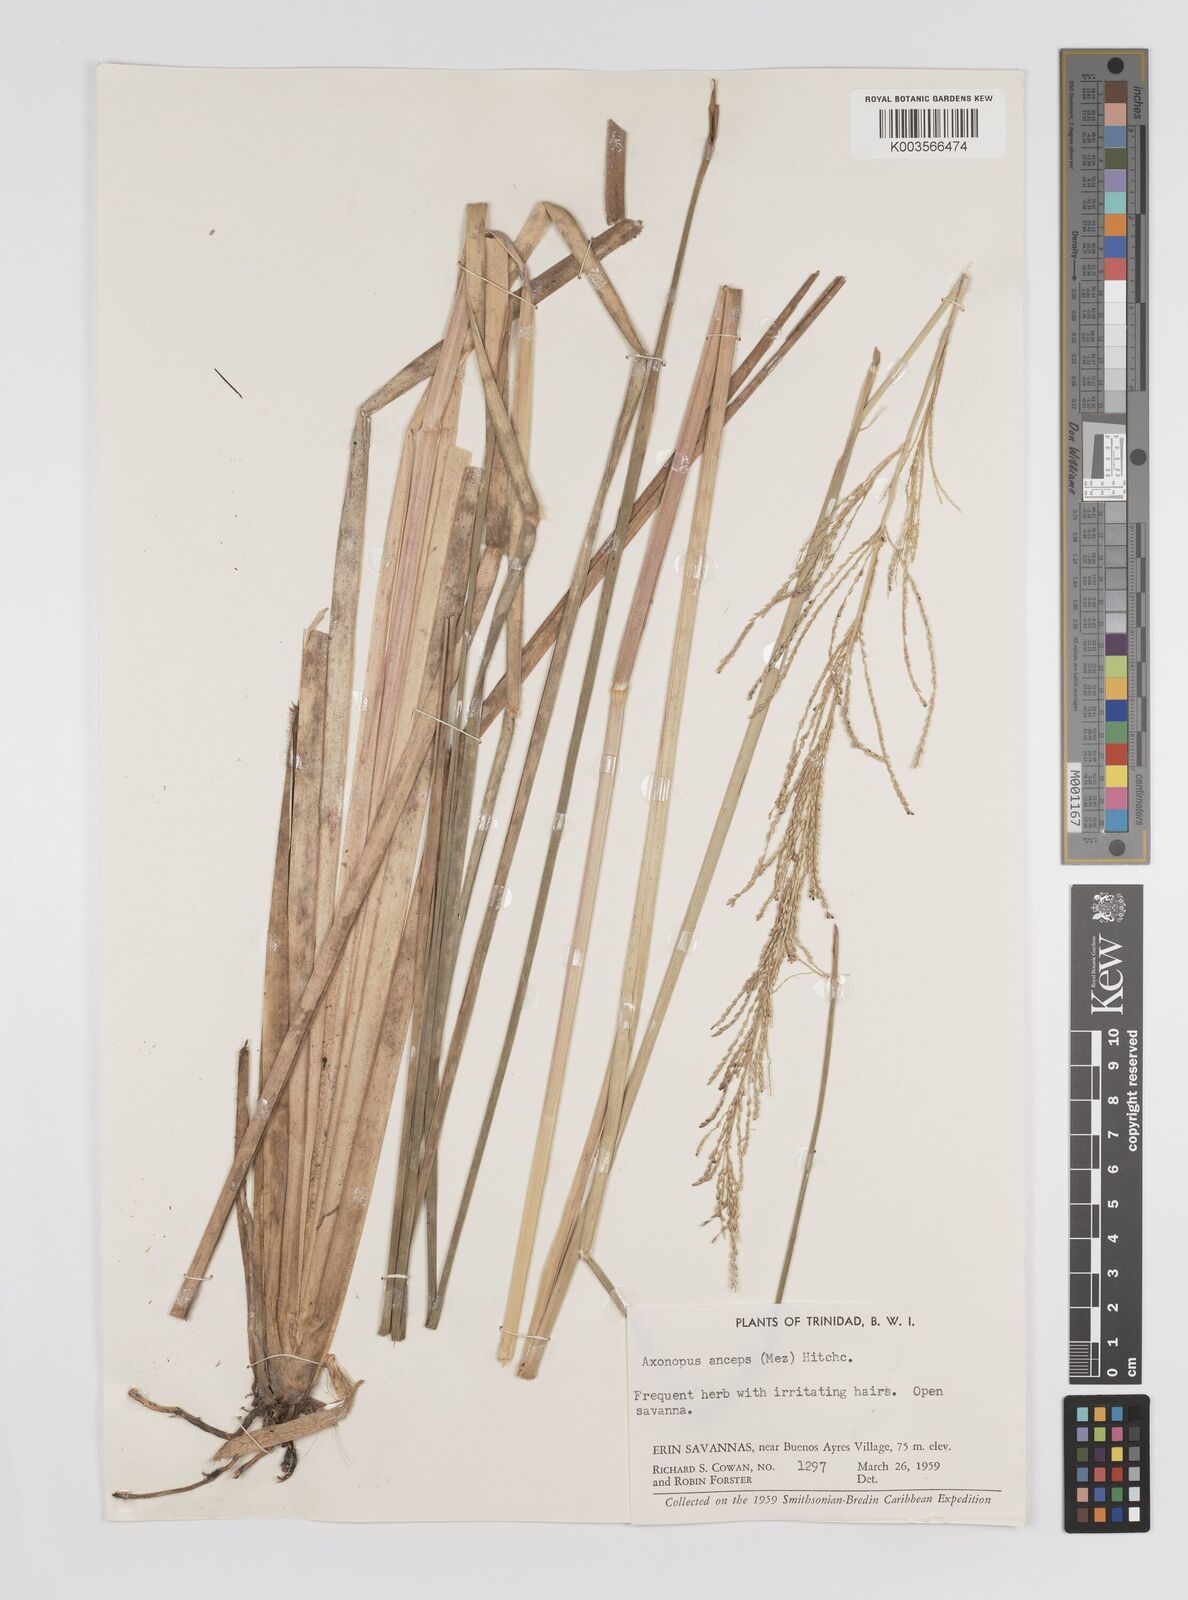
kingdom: Plantae
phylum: Tracheophyta
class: Liliopsida
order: Poales
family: Poaceae
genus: Axonopus
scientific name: Axonopus anceps
